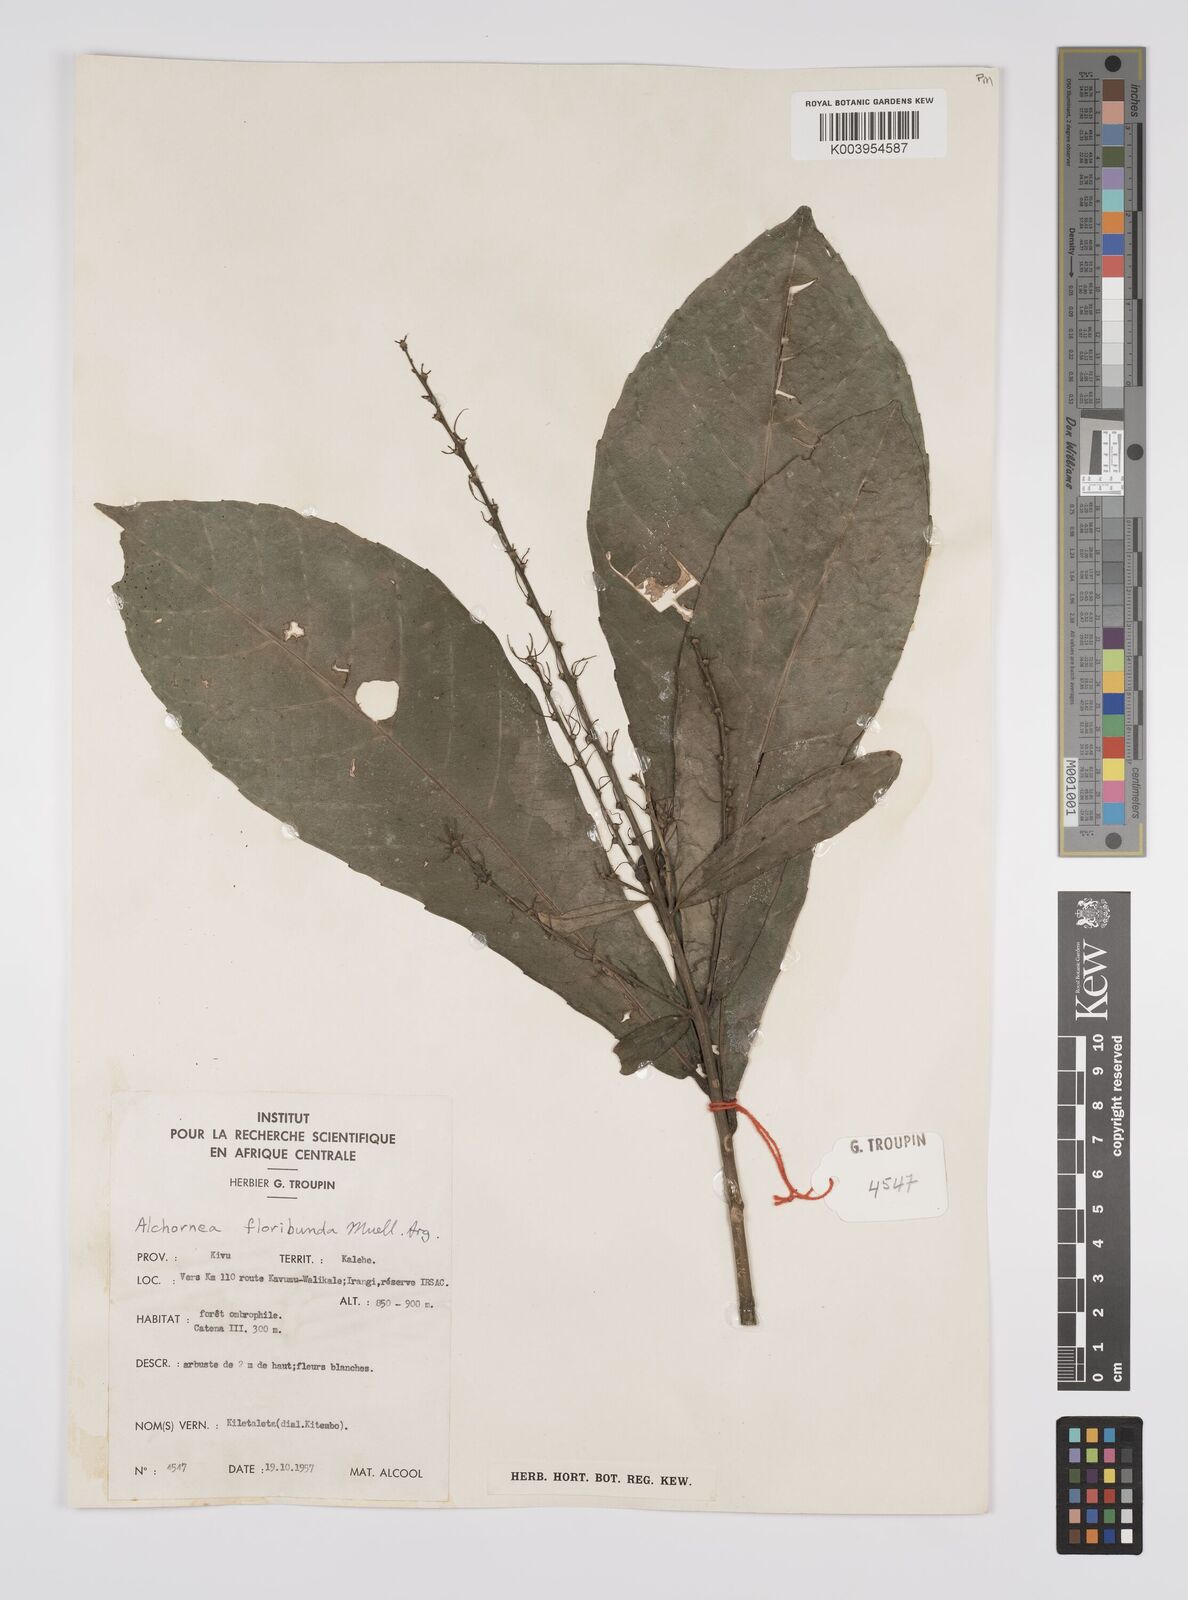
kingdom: Plantae
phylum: Tracheophyta
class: Magnoliopsida
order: Malpighiales
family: Euphorbiaceae
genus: Alchornea
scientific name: Alchornea floribunda
